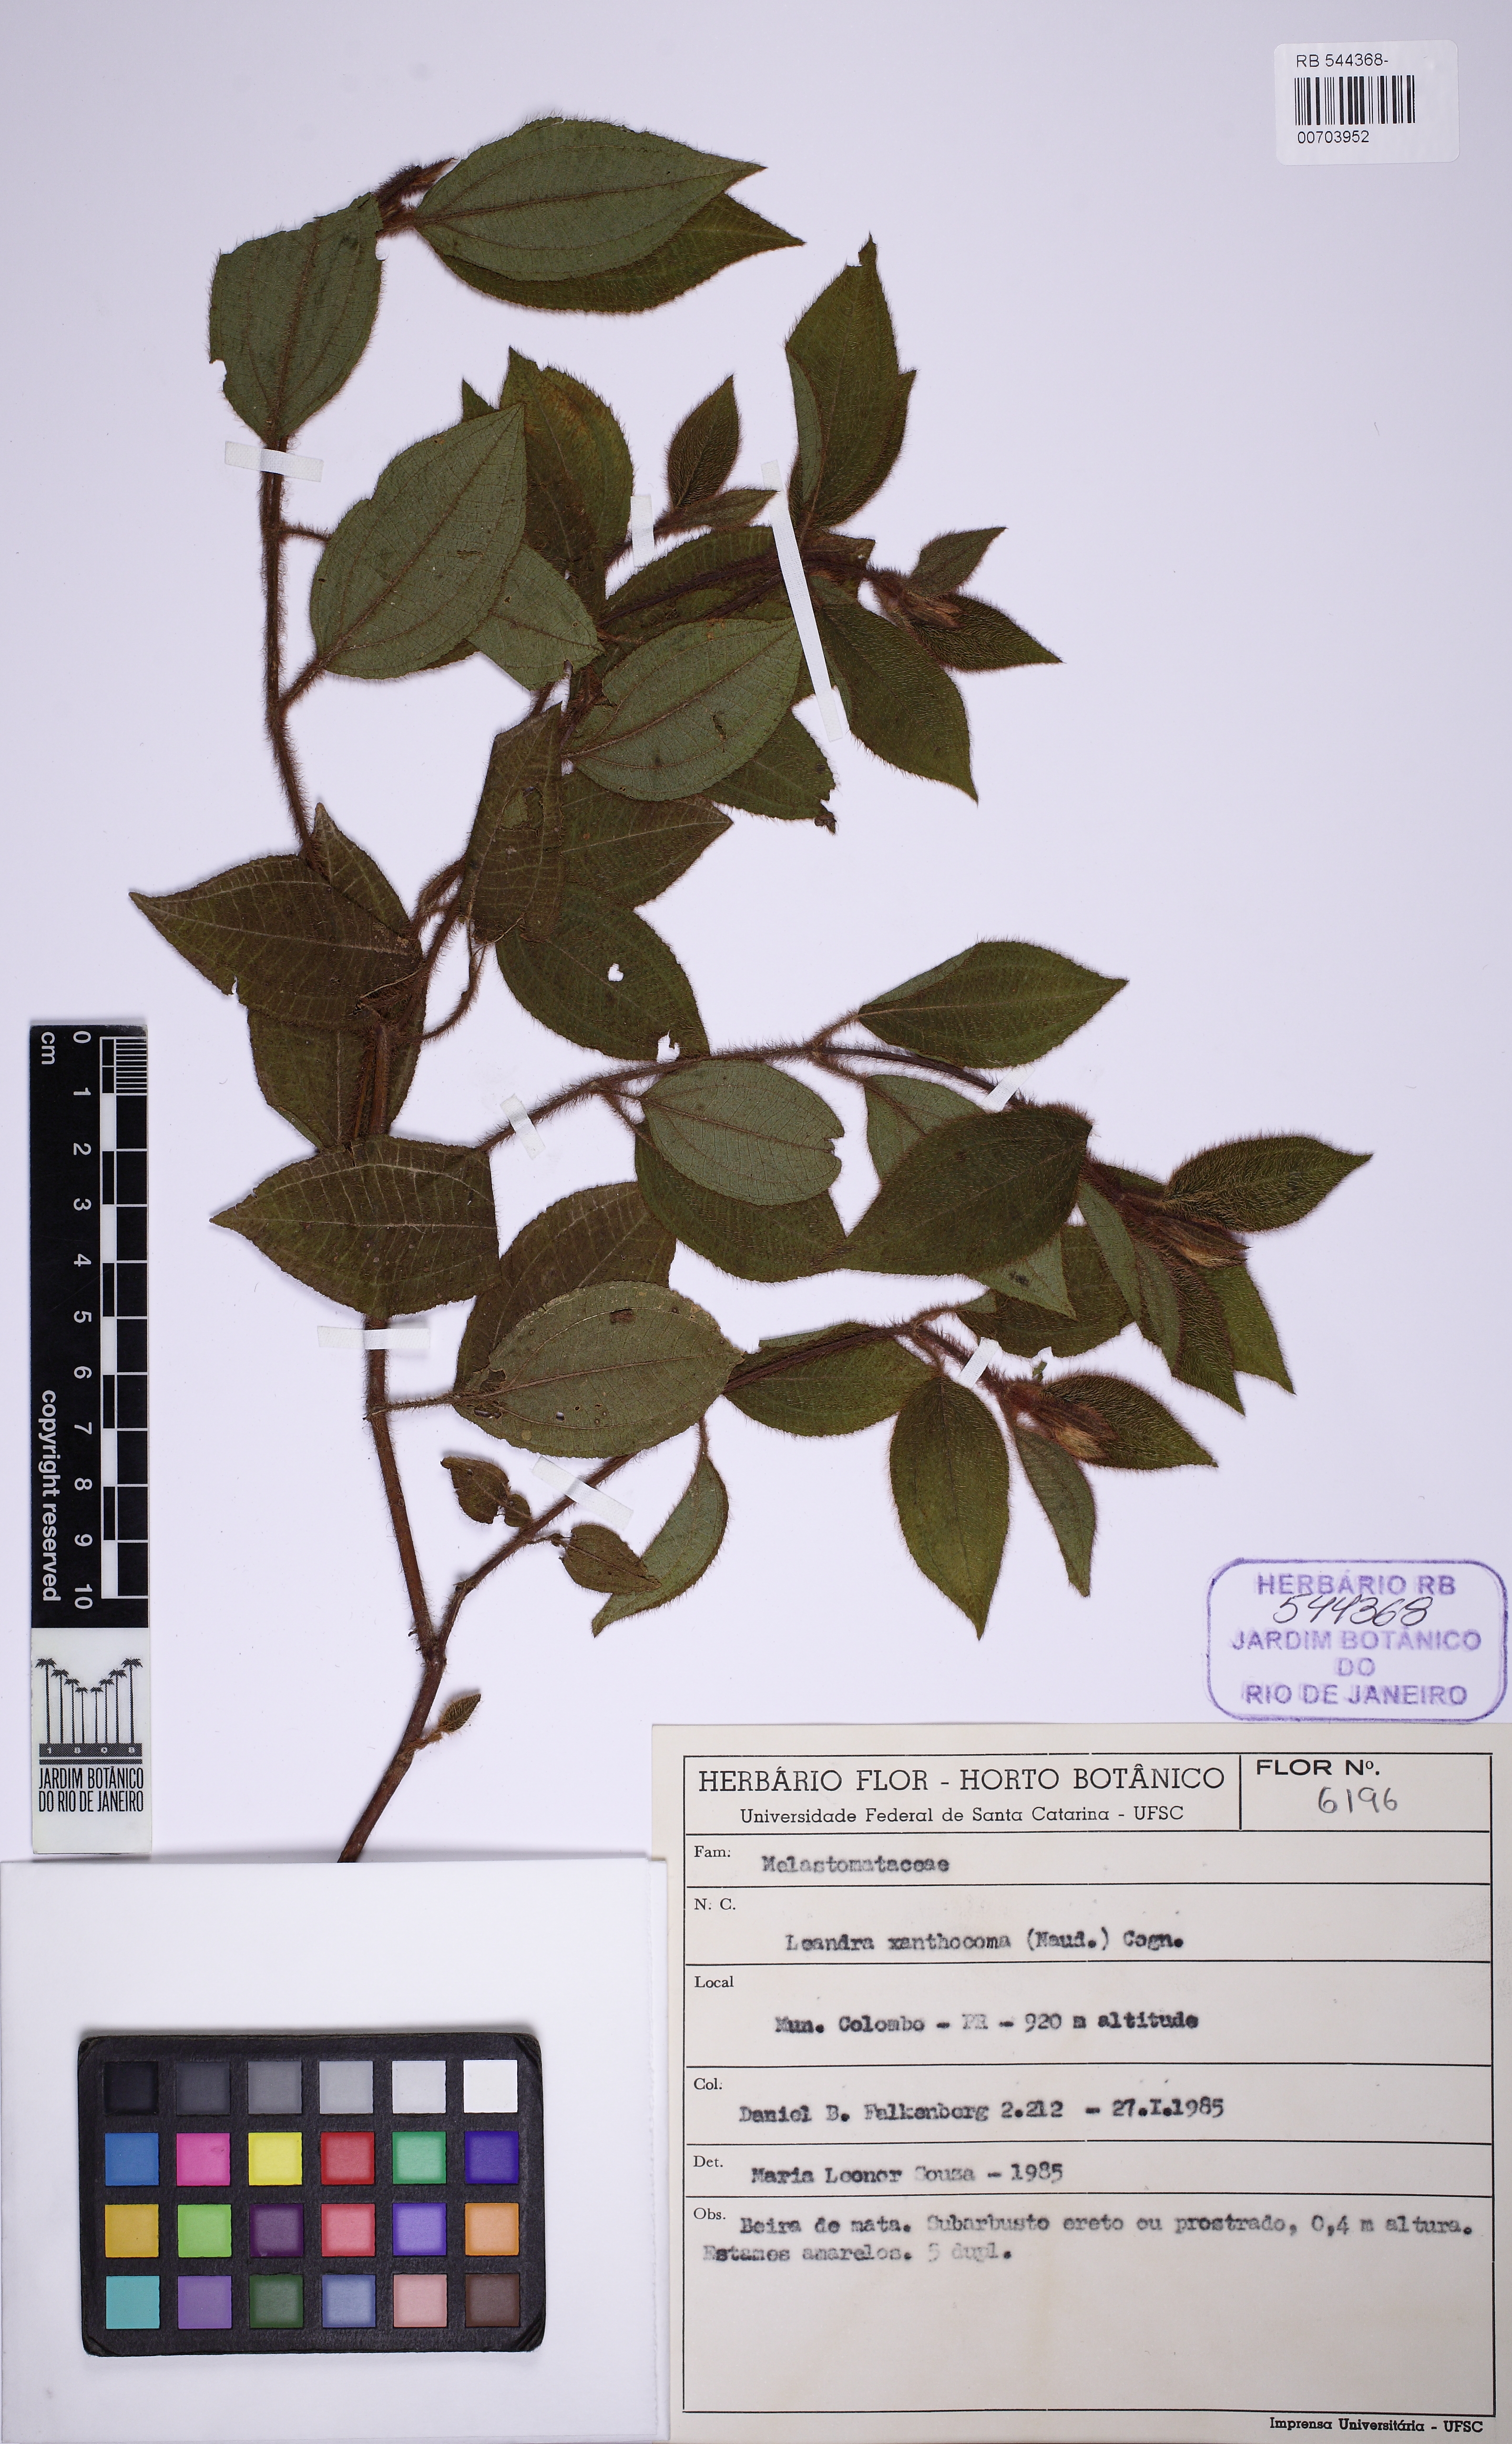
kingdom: Plantae
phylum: Tracheophyta
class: Magnoliopsida
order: Myrtales
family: Melastomataceae
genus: Miconia
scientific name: Miconia xanthocoma
